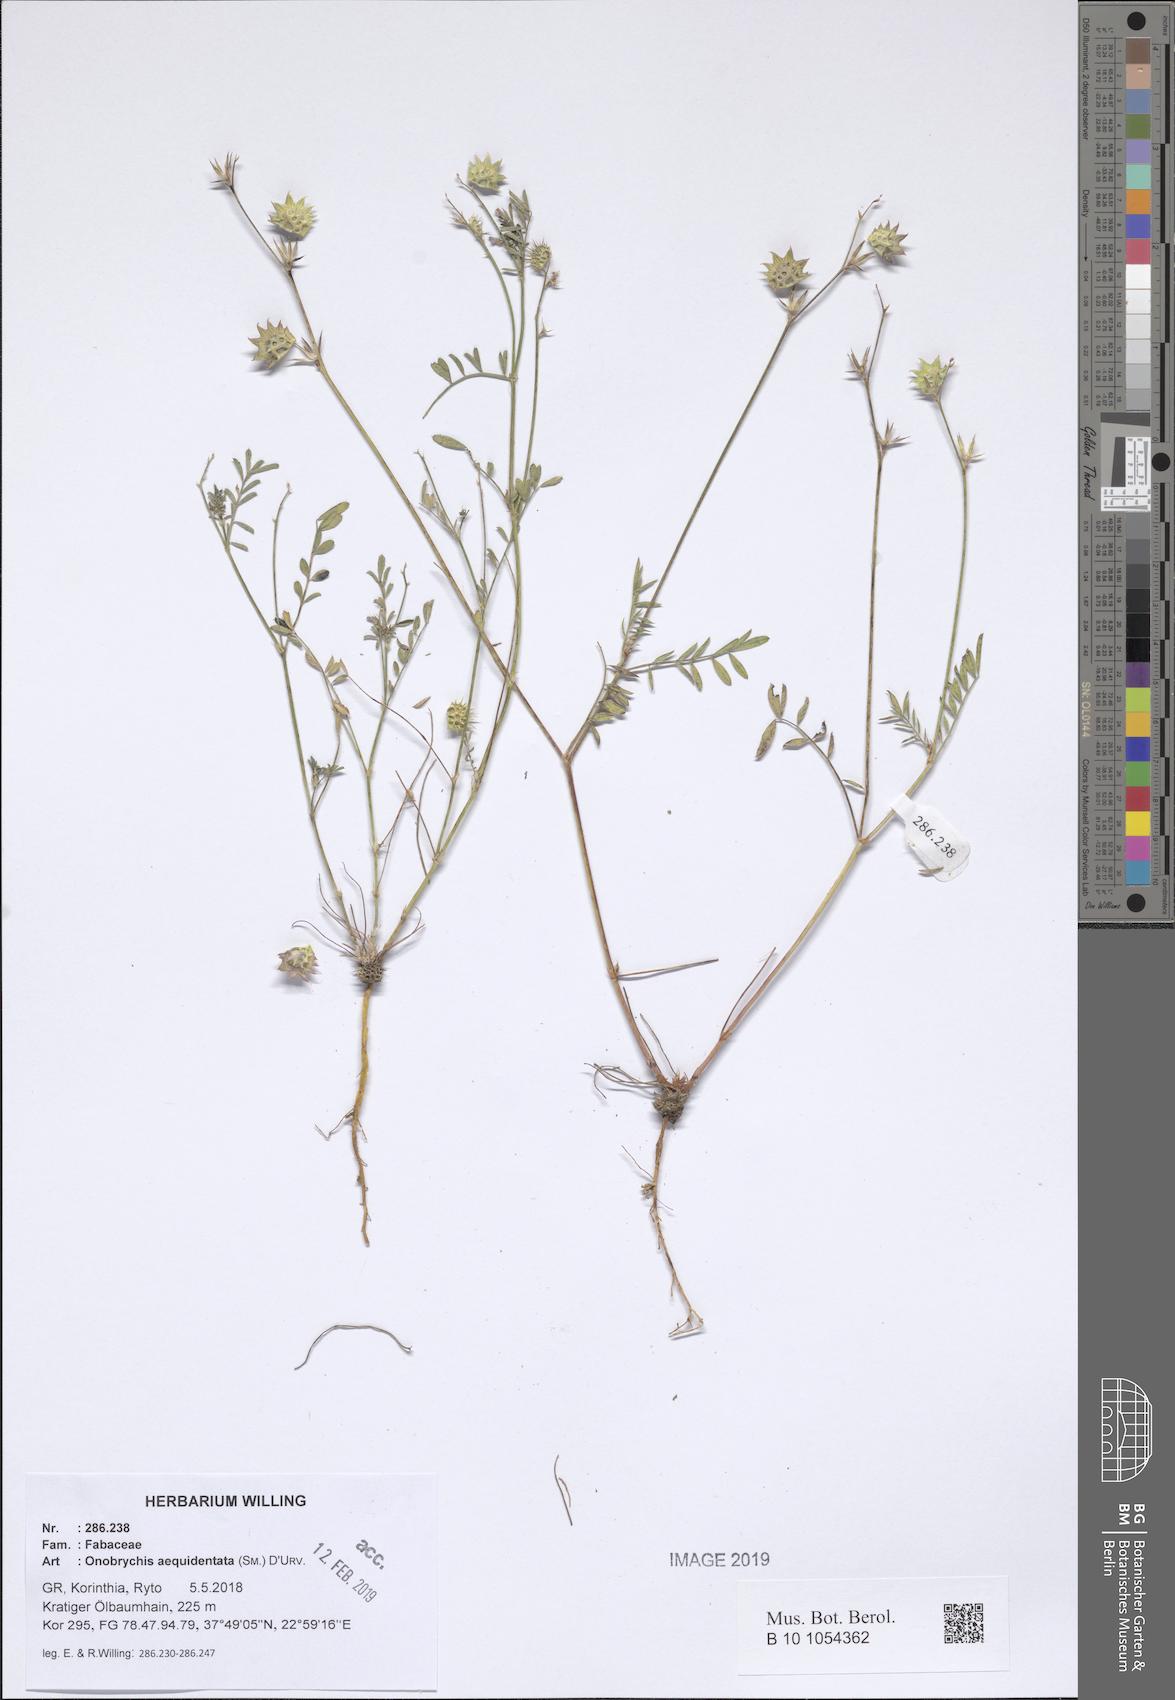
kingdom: Plantae
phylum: Tracheophyta
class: Magnoliopsida
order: Fabales
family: Fabaceae
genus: Onobrychis
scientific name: Onobrychis aequidentata
